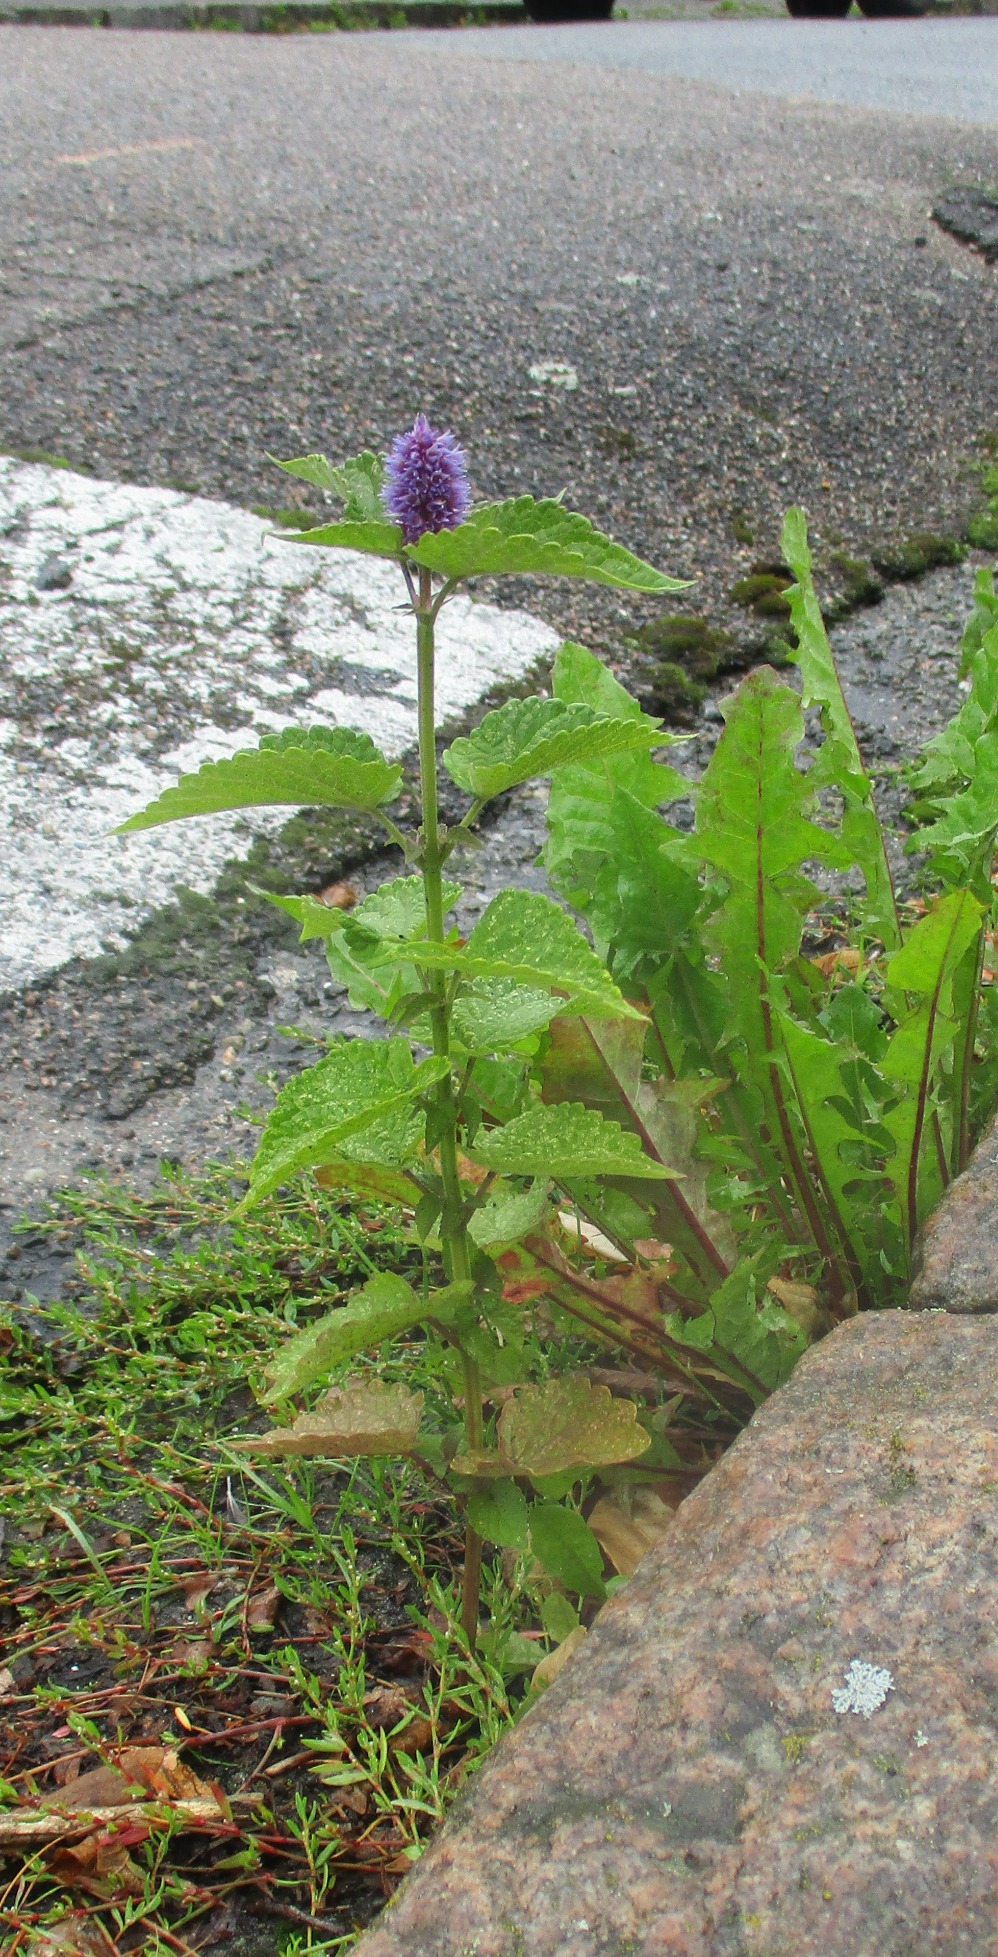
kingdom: Plantae
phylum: Tracheophyta
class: Magnoliopsida
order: Lamiales
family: Lamiaceae
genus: Agastache
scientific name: Agastache rugosa
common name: Koreansk anisisop
